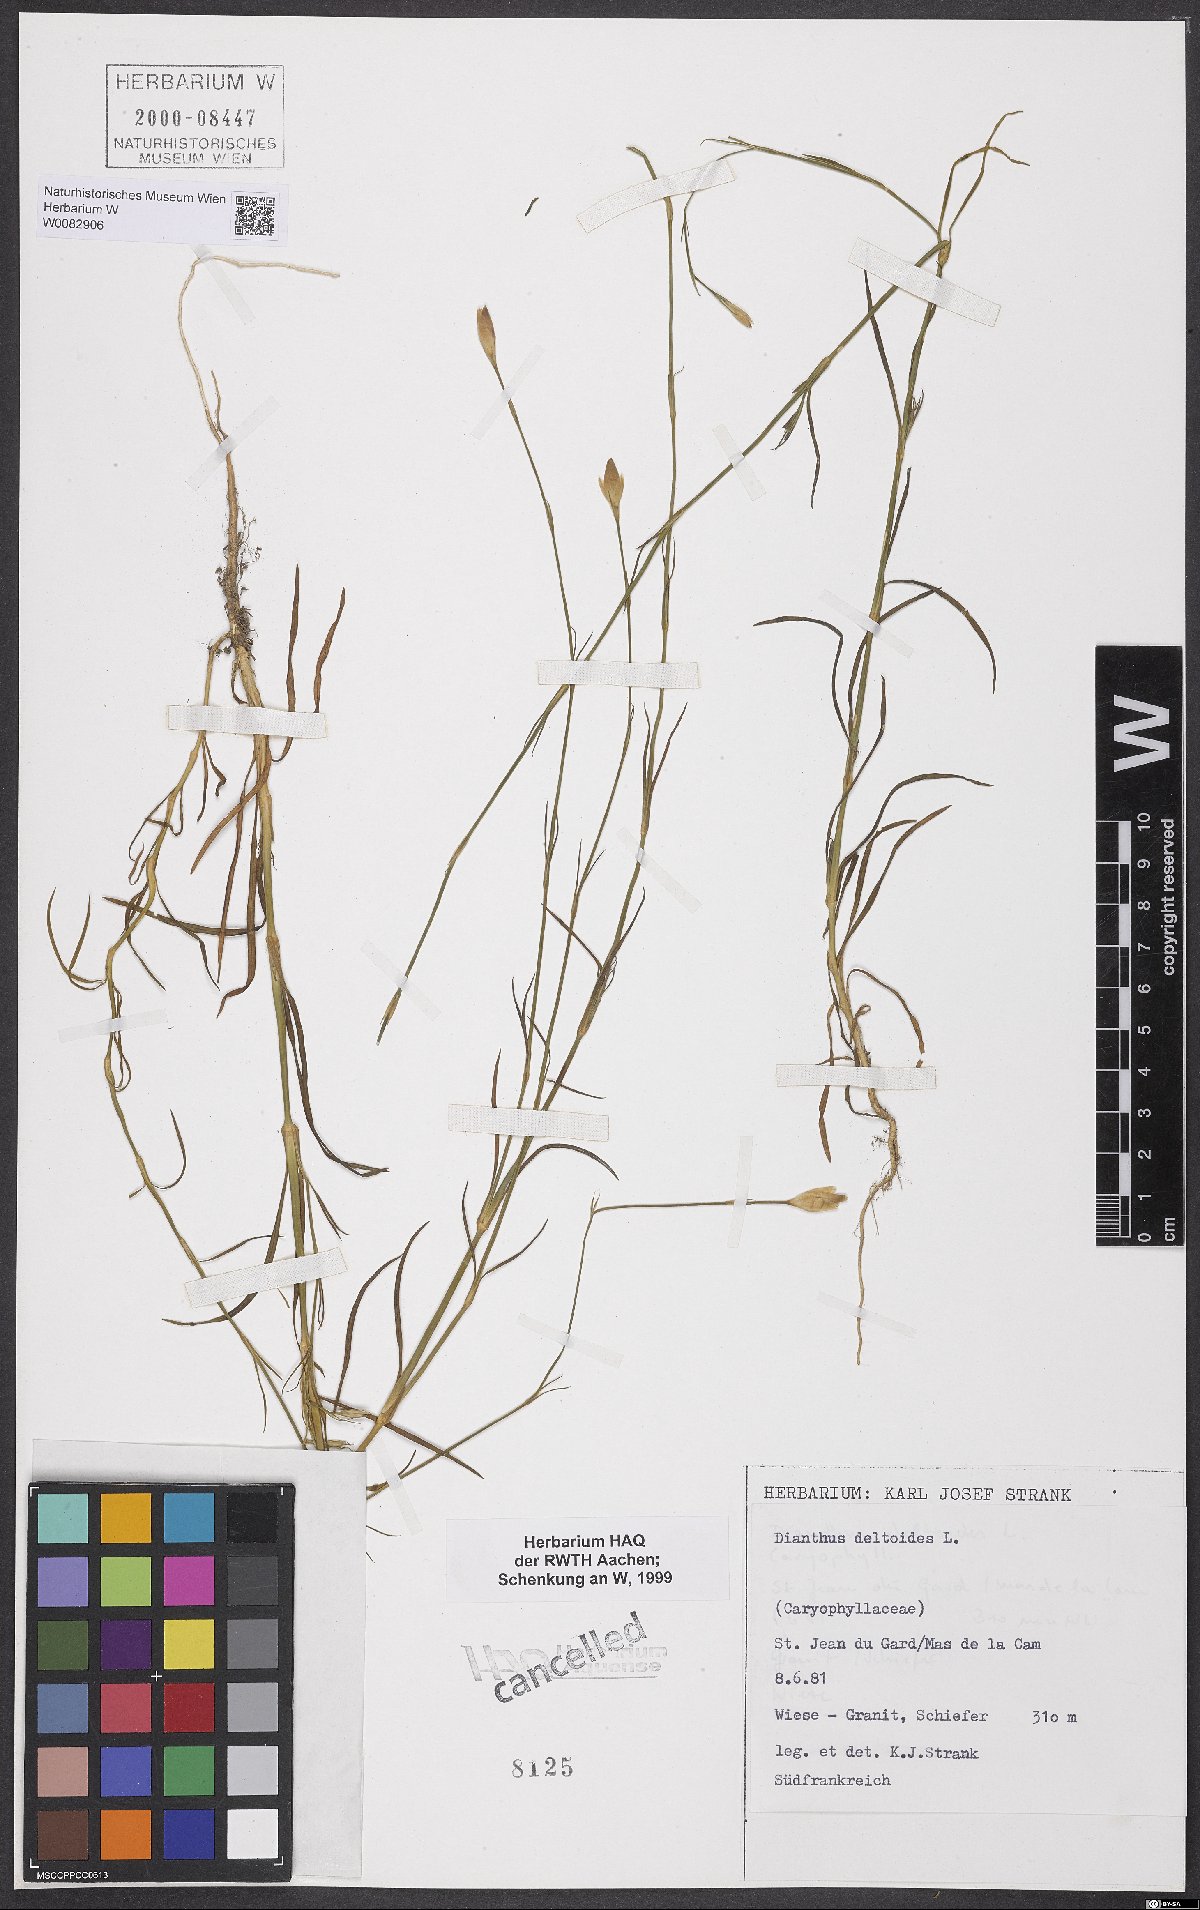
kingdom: Plantae
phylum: Tracheophyta
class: Magnoliopsida
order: Caryophyllales
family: Caryophyllaceae
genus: Dianthus
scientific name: Dianthus deltoides
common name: Maiden pink
